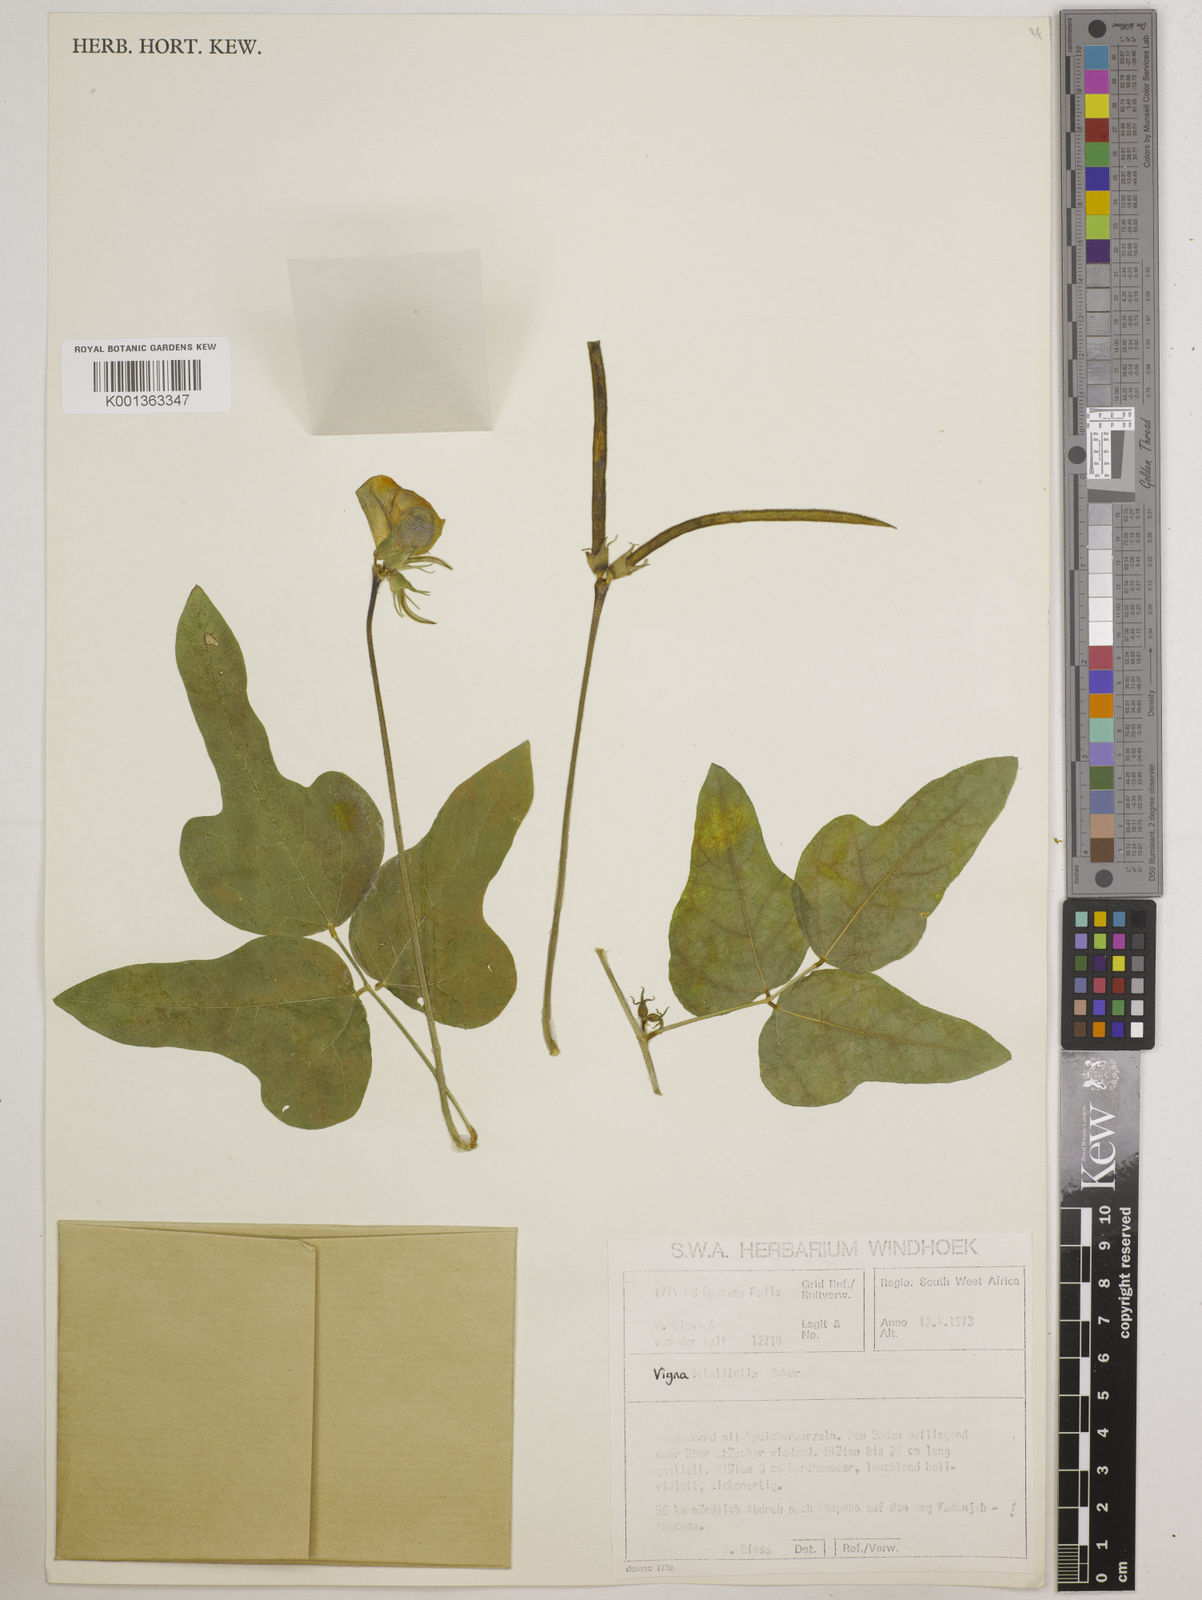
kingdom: Plantae
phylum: Tracheophyta
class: Magnoliopsida
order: Fabales
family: Fabaceae
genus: Vigna
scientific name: Vigna lobatifolia
